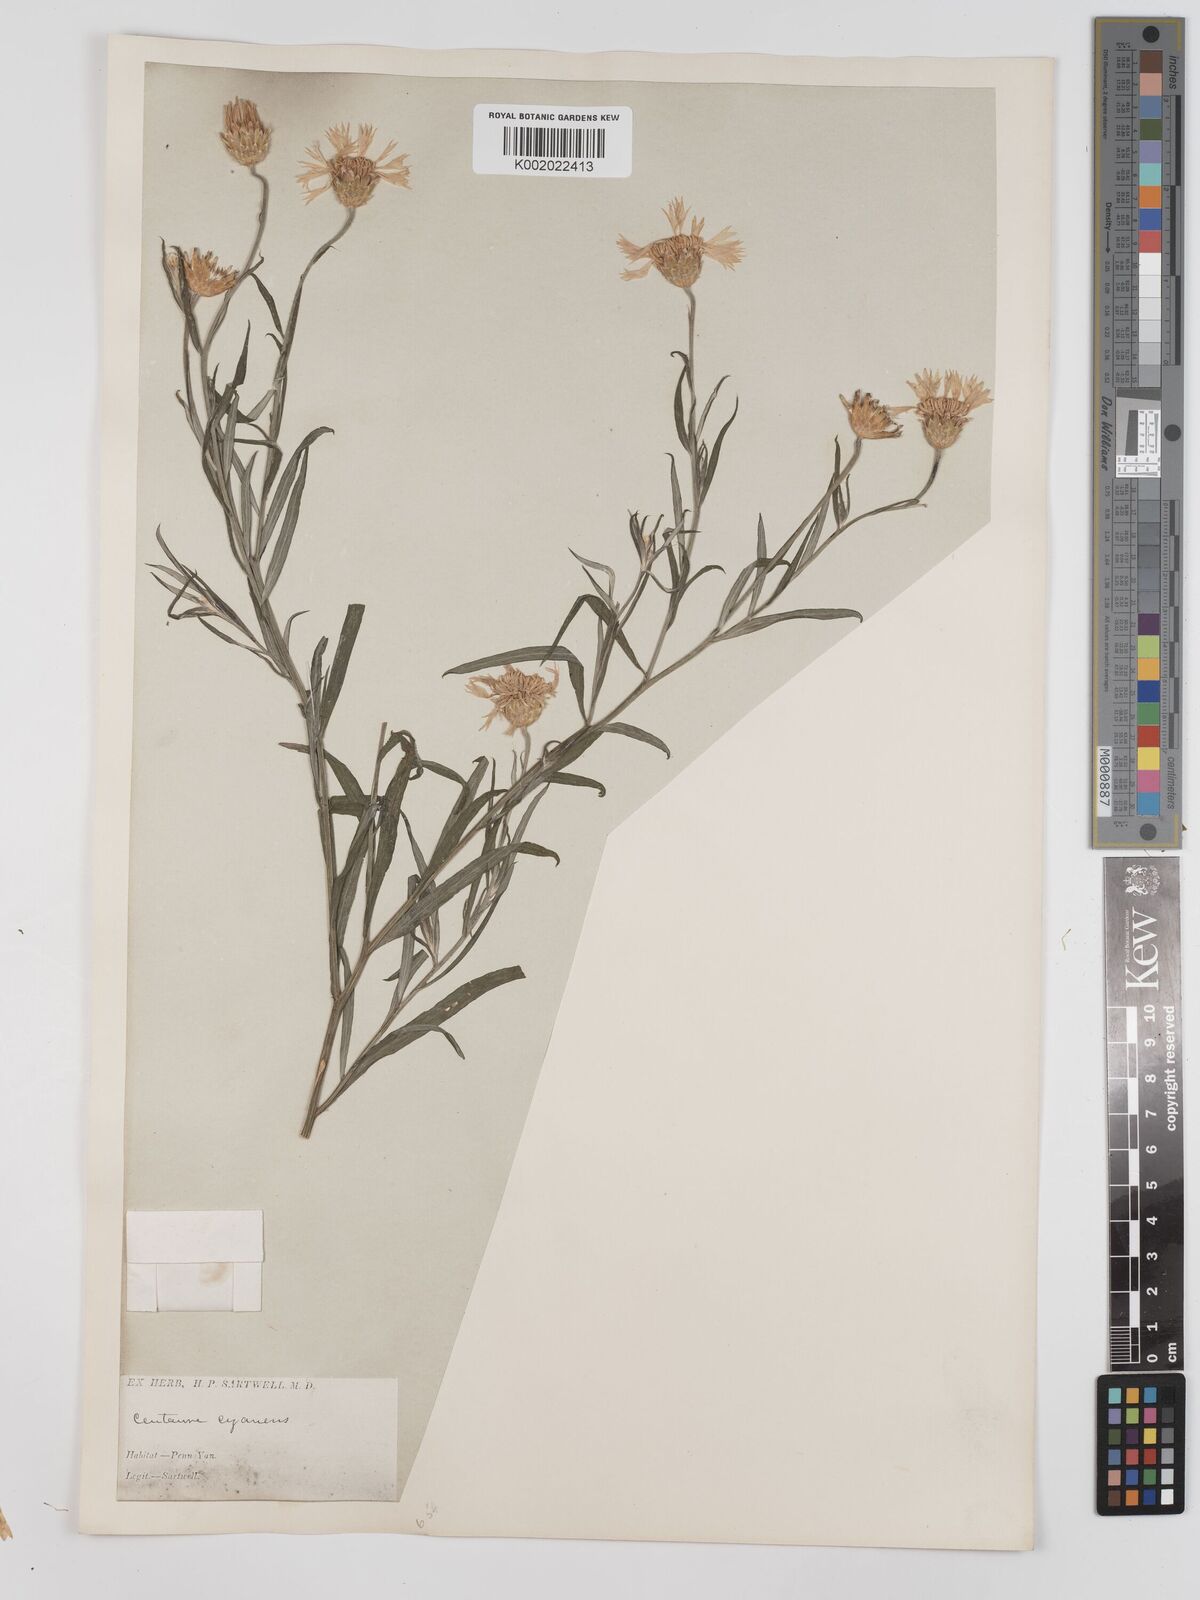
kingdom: Plantae
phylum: Tracheophyta
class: Magnoliopsida
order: Asterales
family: Asteraceae
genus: Centaurea
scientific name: Centaurea cyanus
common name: Cornflower
